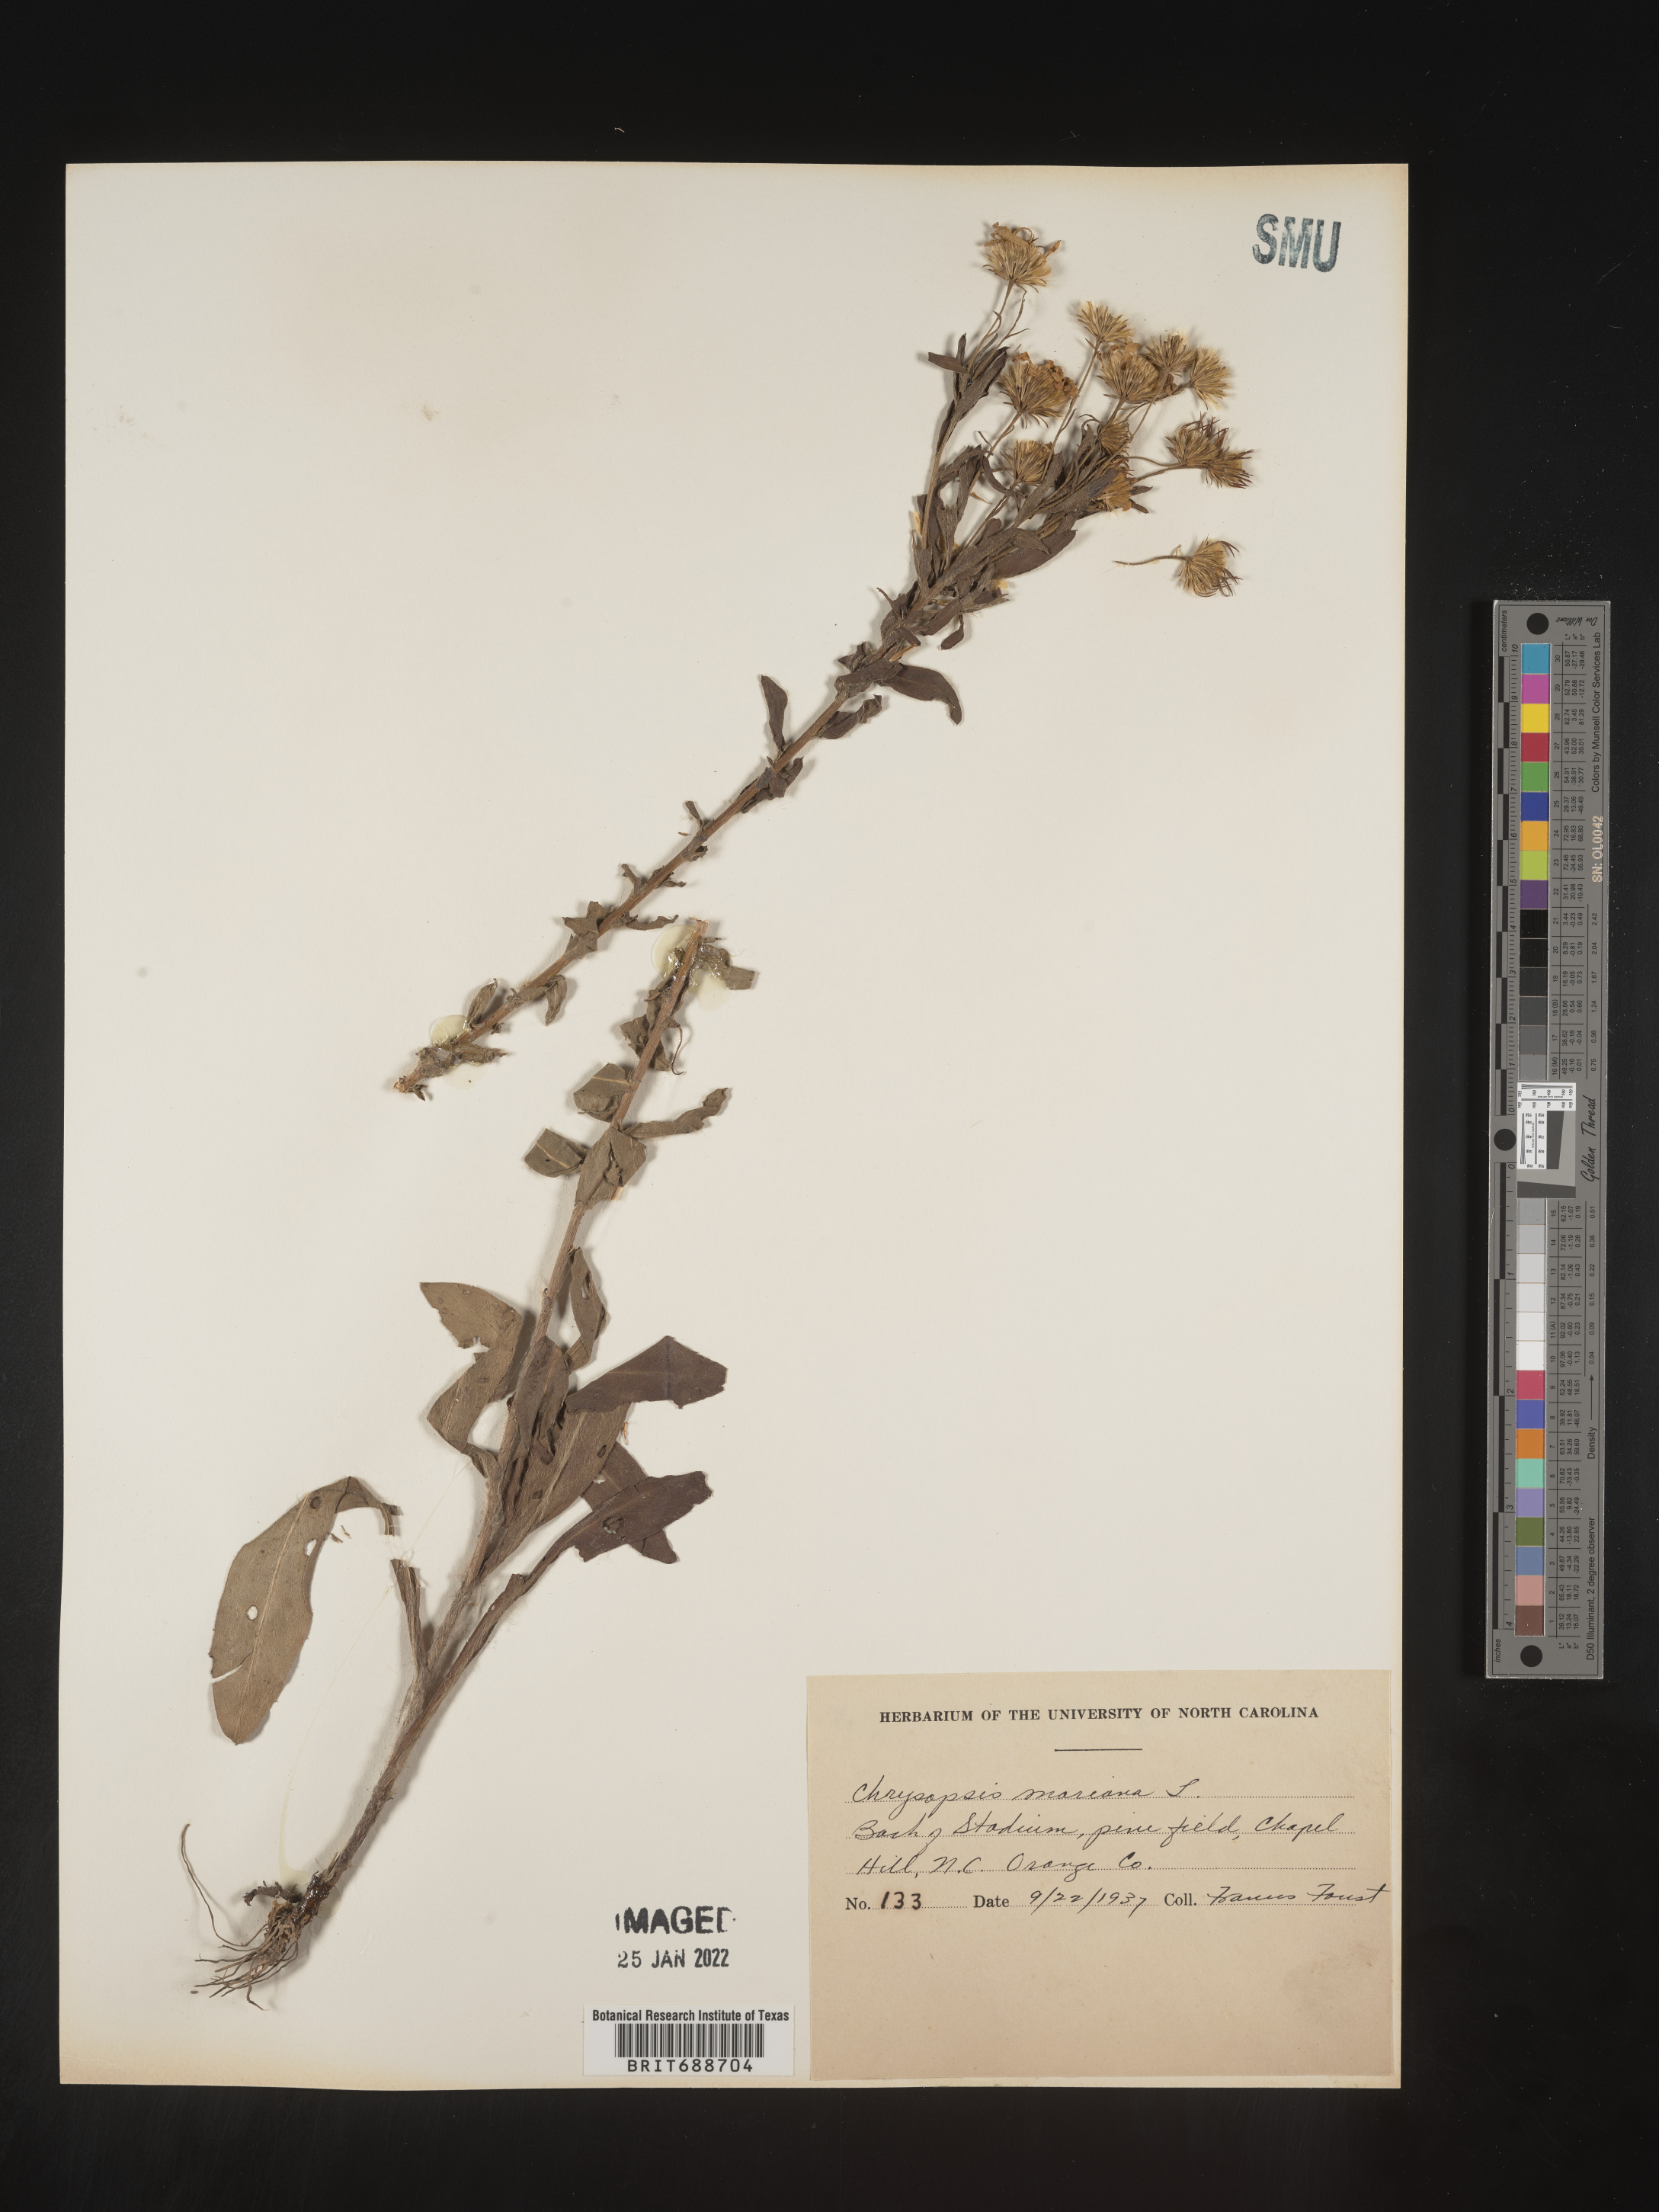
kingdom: Plantae
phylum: Tracheophyta
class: Magnoliopsida
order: Asterales
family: Asteraceae
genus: Chrysopsis
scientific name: Chrysopsis mariana
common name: Maryland golden-aster
